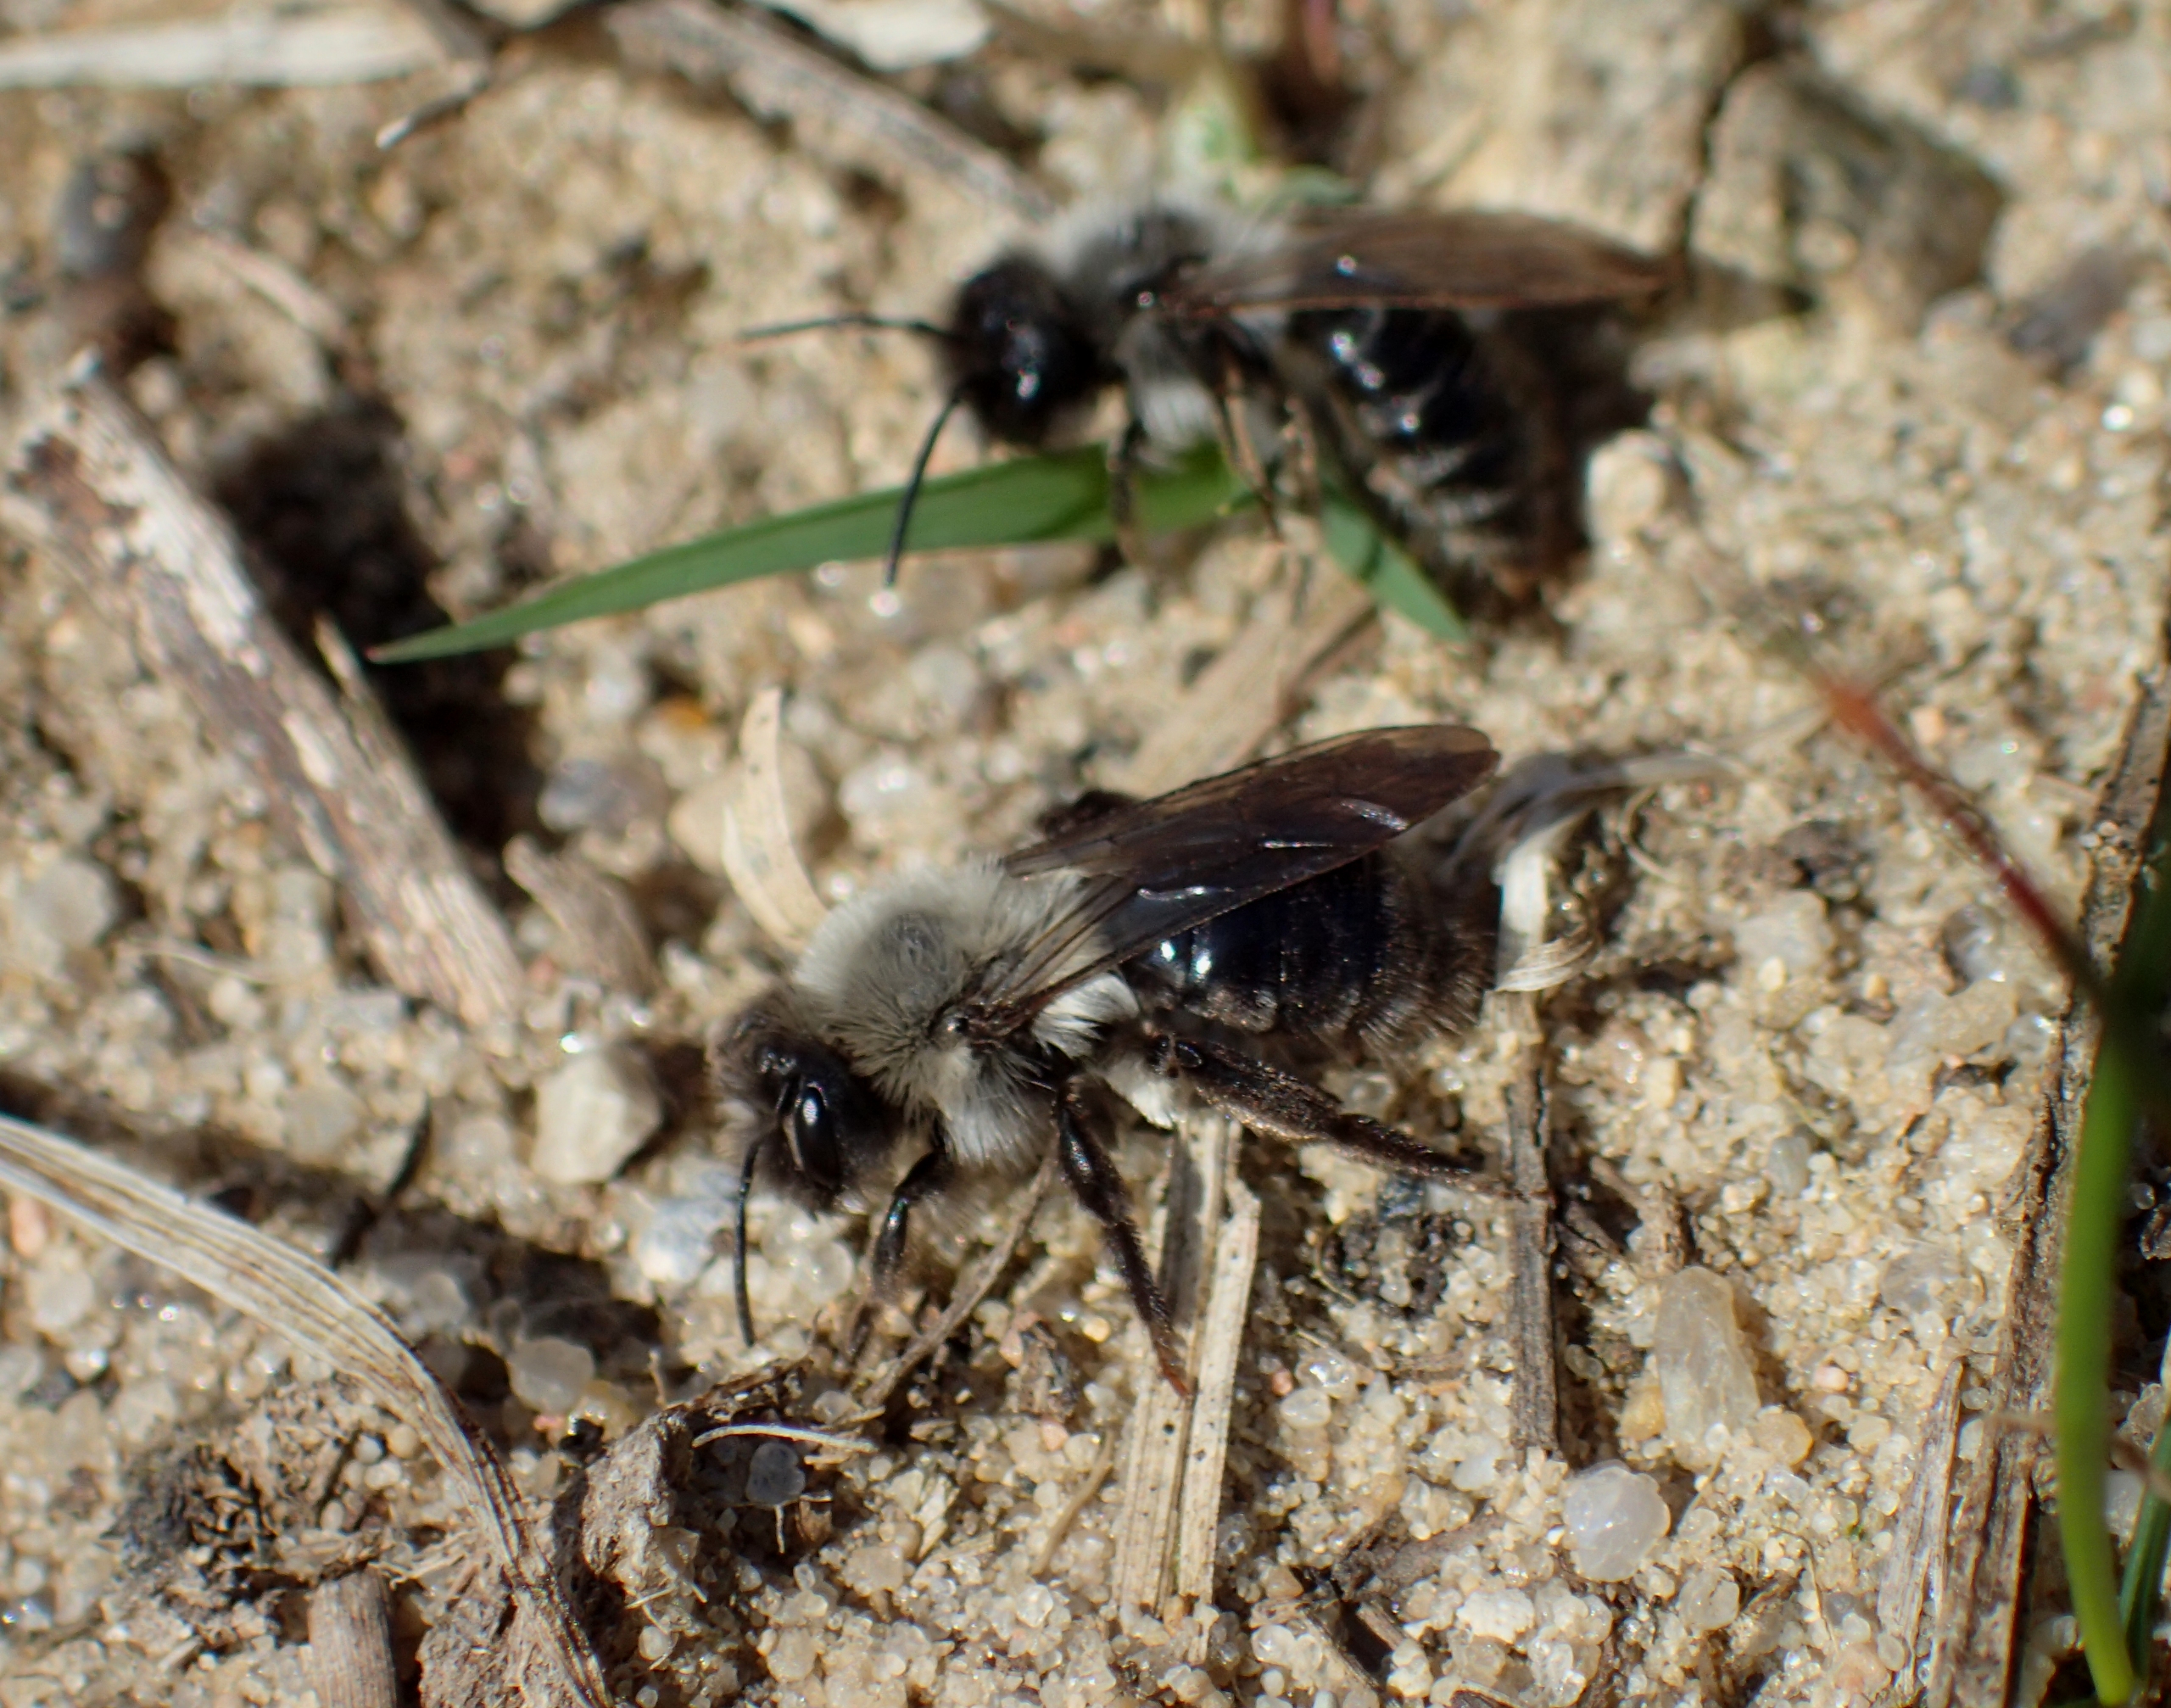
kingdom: Animalia
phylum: Arthropoda
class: Insecta
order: Hymenoptera
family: Andrenidae
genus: Andrena
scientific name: Andrena vaga
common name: Hvidbrystet jordbi
